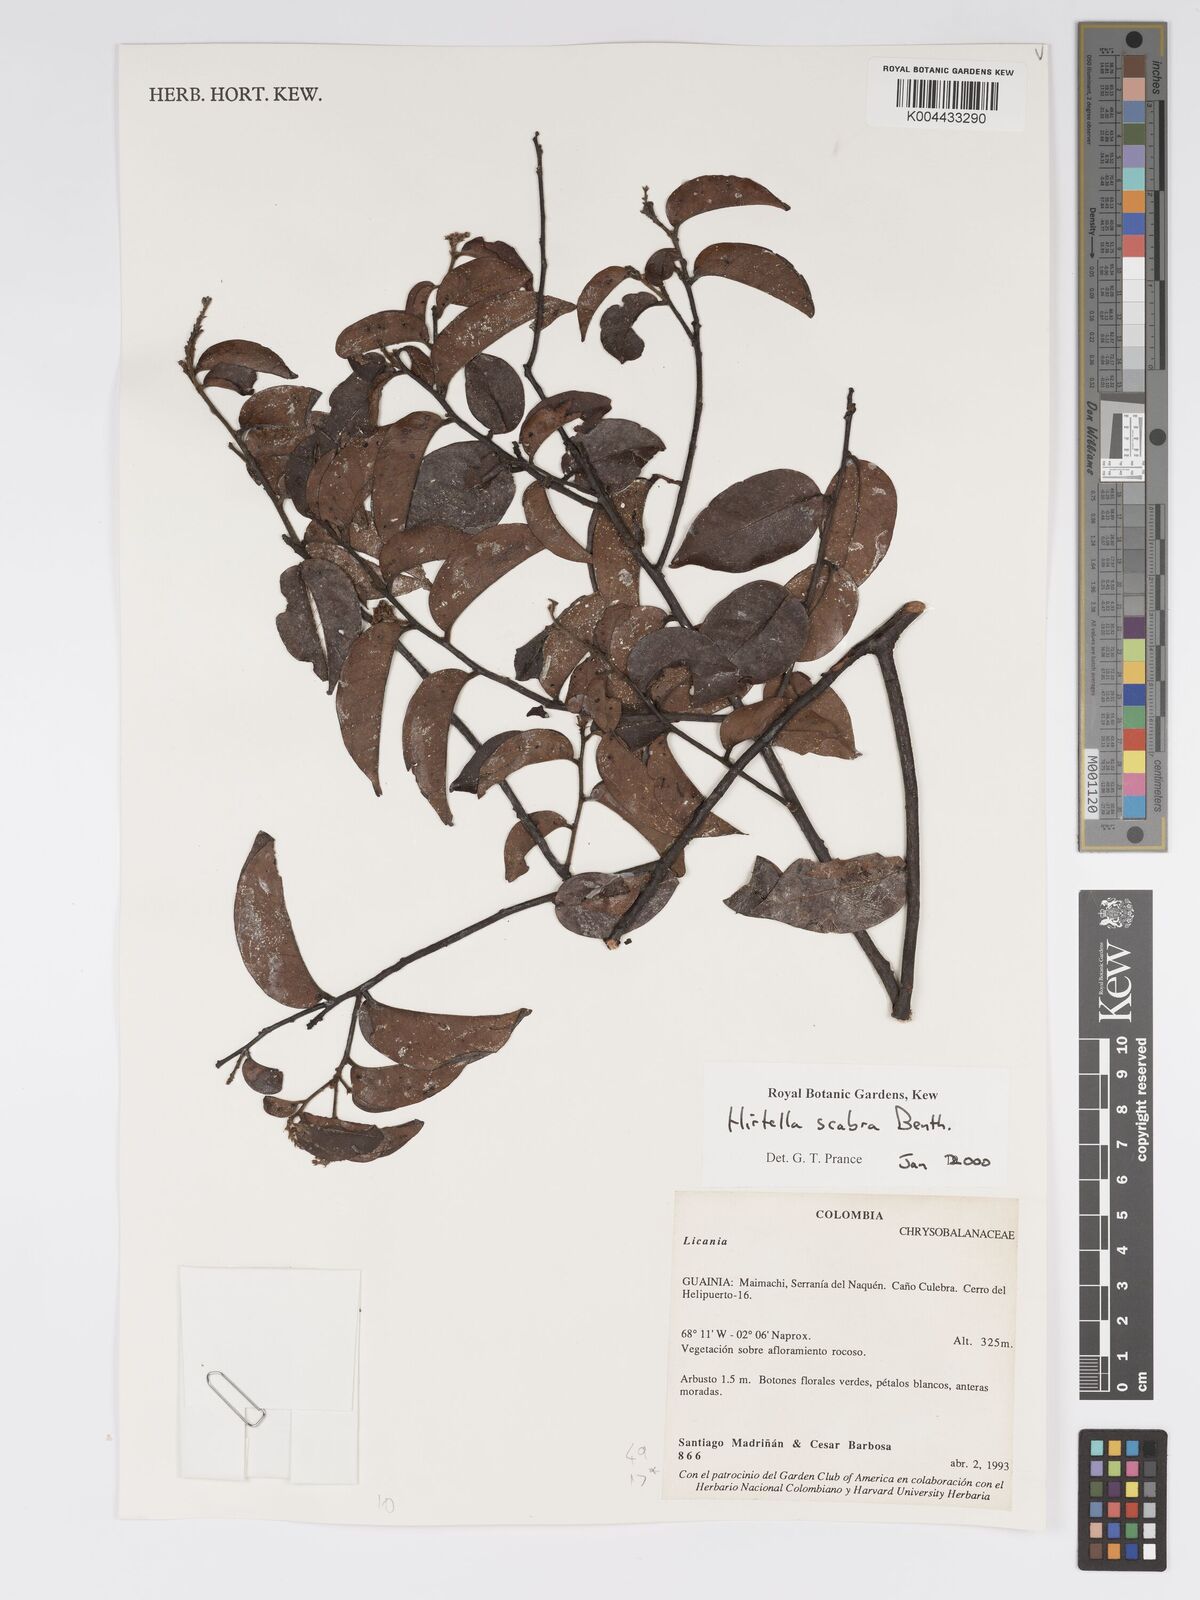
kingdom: Plantae
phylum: Tracheophyta
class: Magnoliopsida
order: Malpighiales
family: Chrysobalanaceae
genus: Hirtella
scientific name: Hirtella scabra
